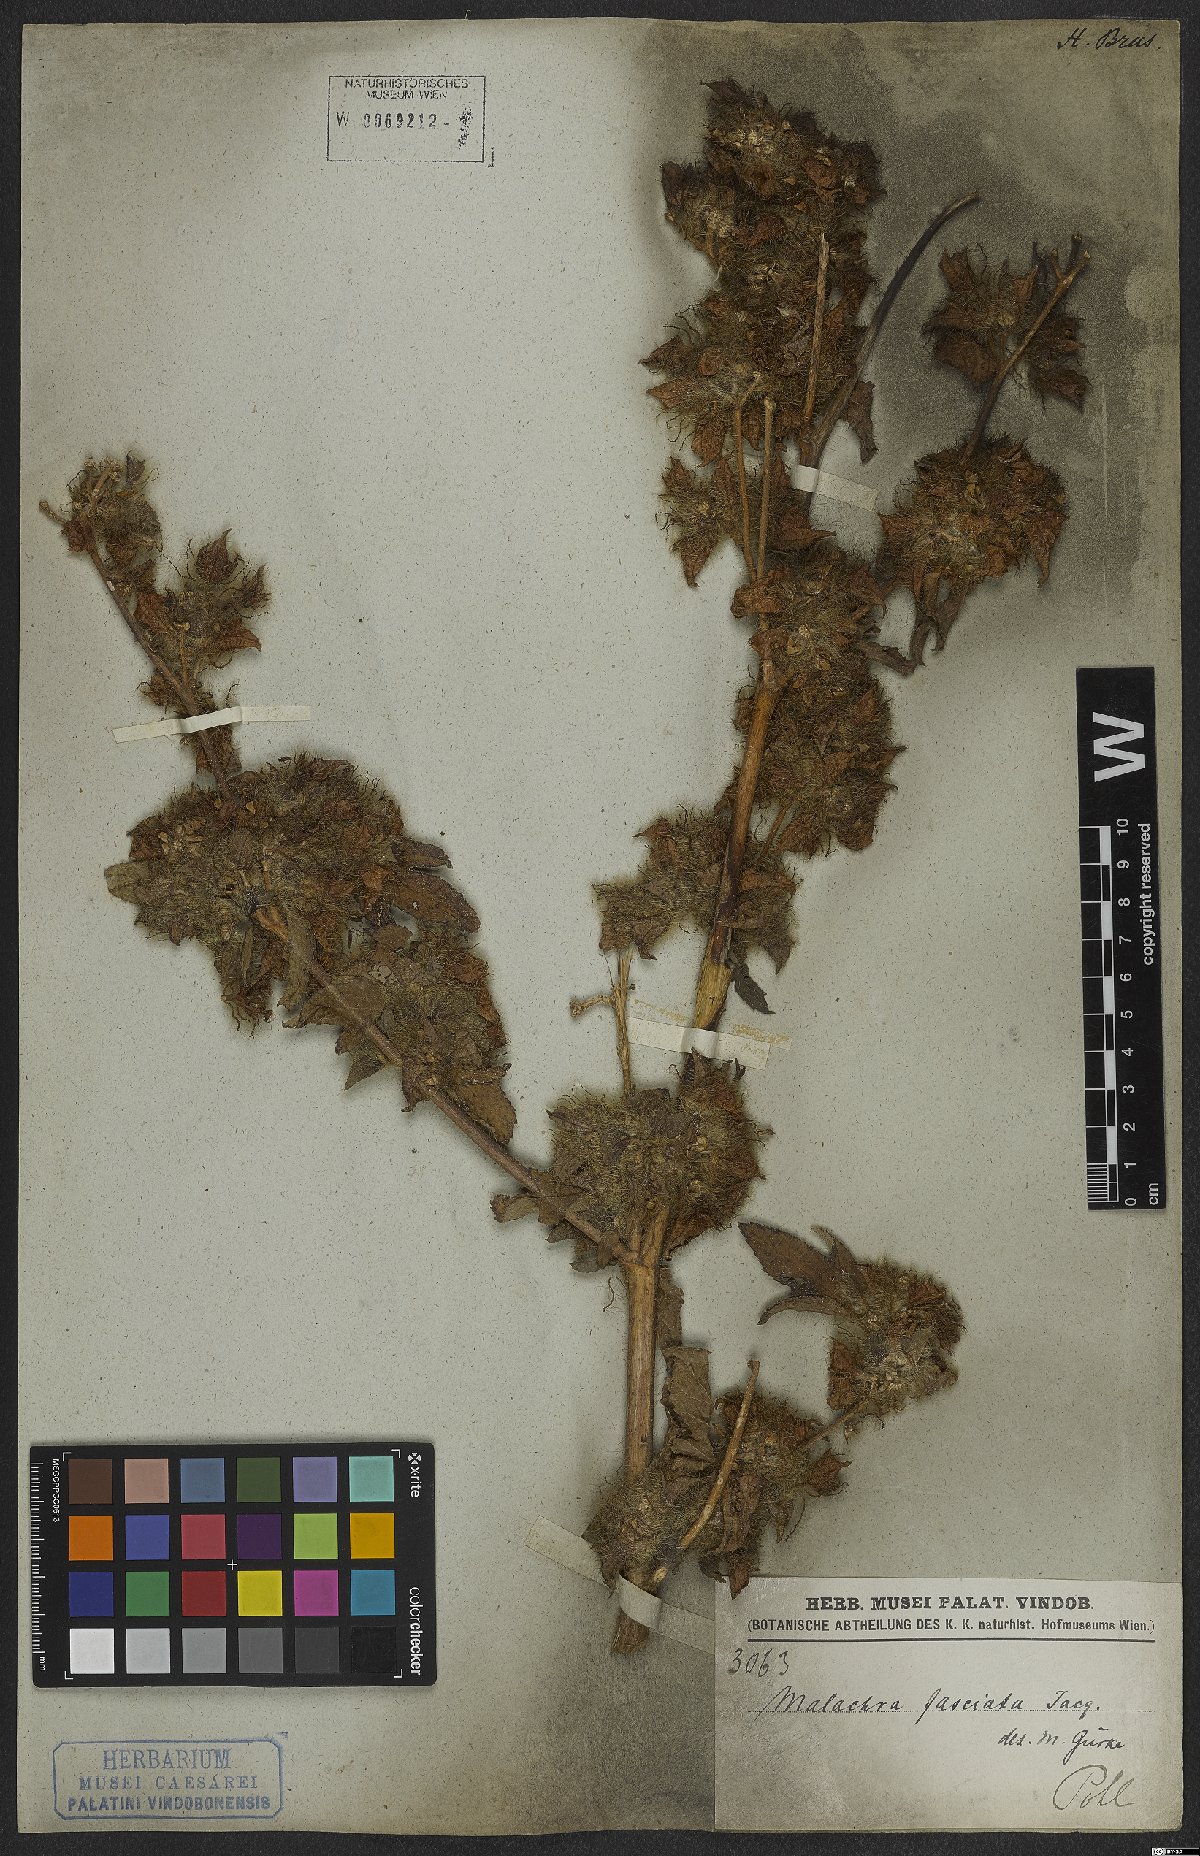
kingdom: Plantae
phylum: Tracheophyta
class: Magnoliopsida
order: Malvales
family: Malvaceae
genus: Malachra
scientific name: Malachra fasciata
